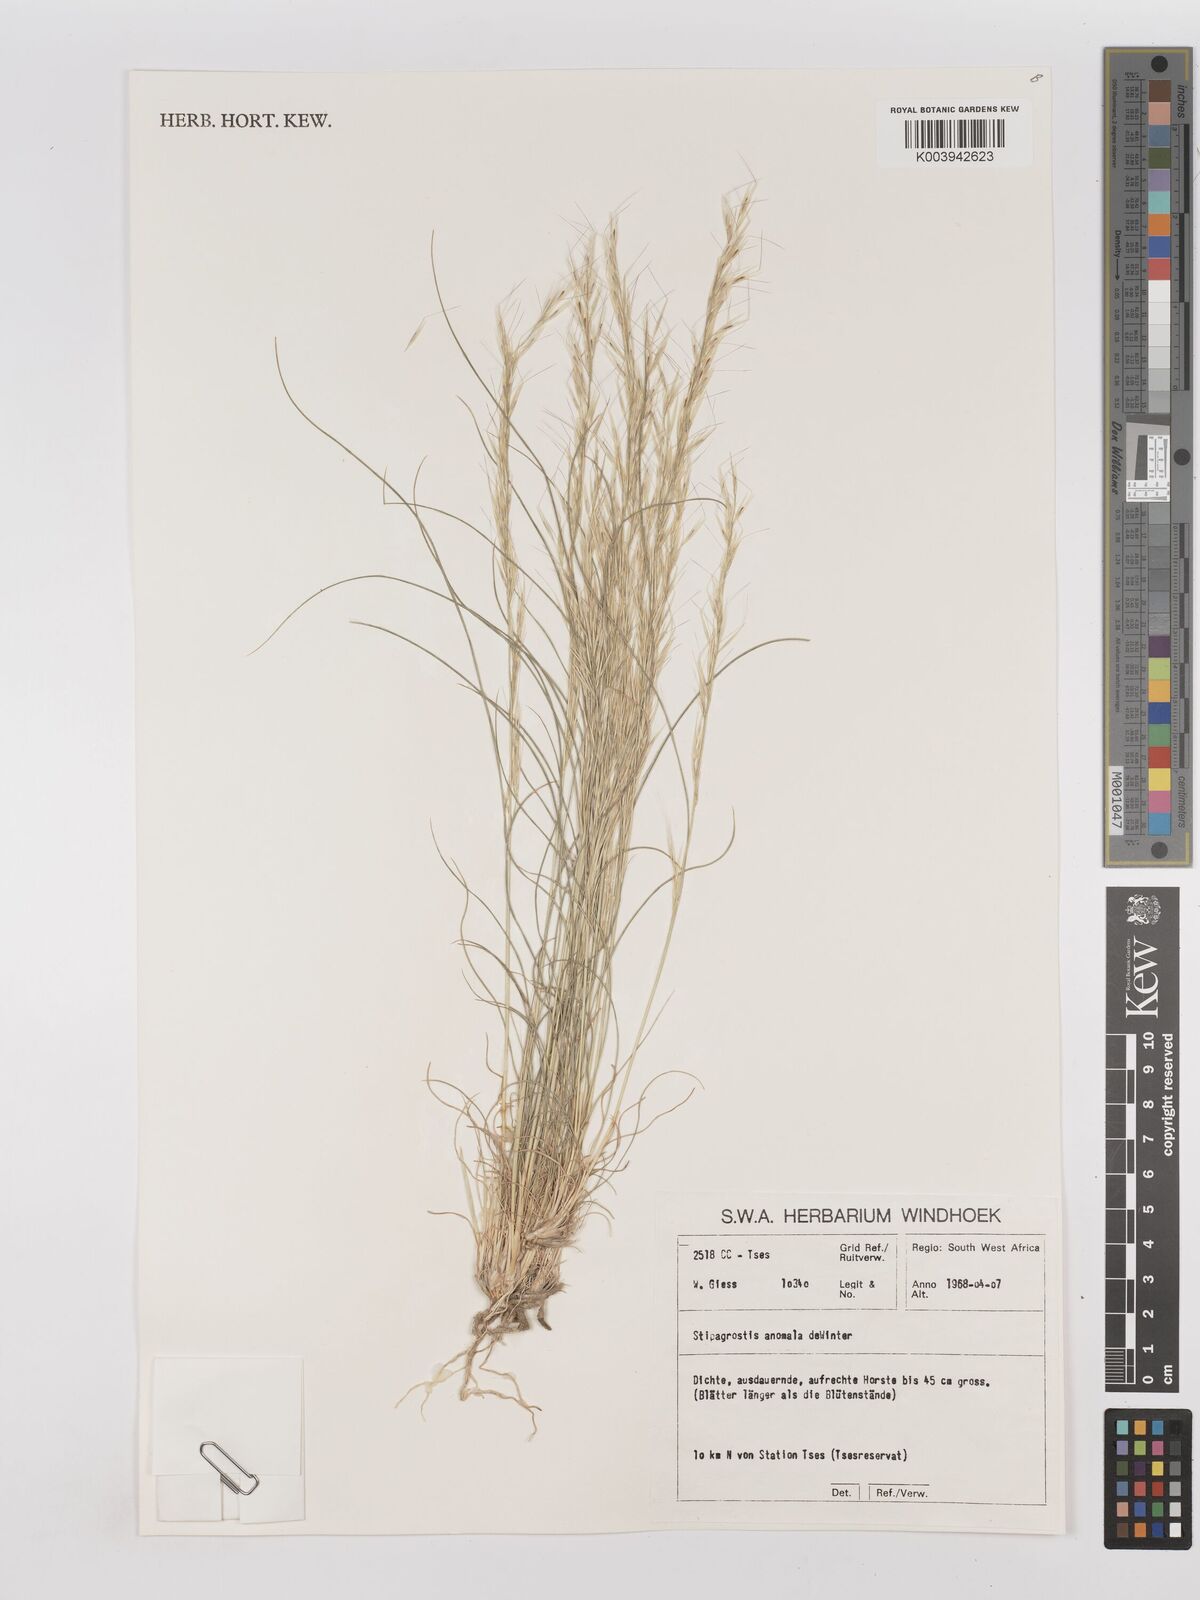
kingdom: Plantae
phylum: Tracheophyta
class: Liliopsida
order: Poales
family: Poaceae
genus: Stipagrostis
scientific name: Stipagrostis anomala
